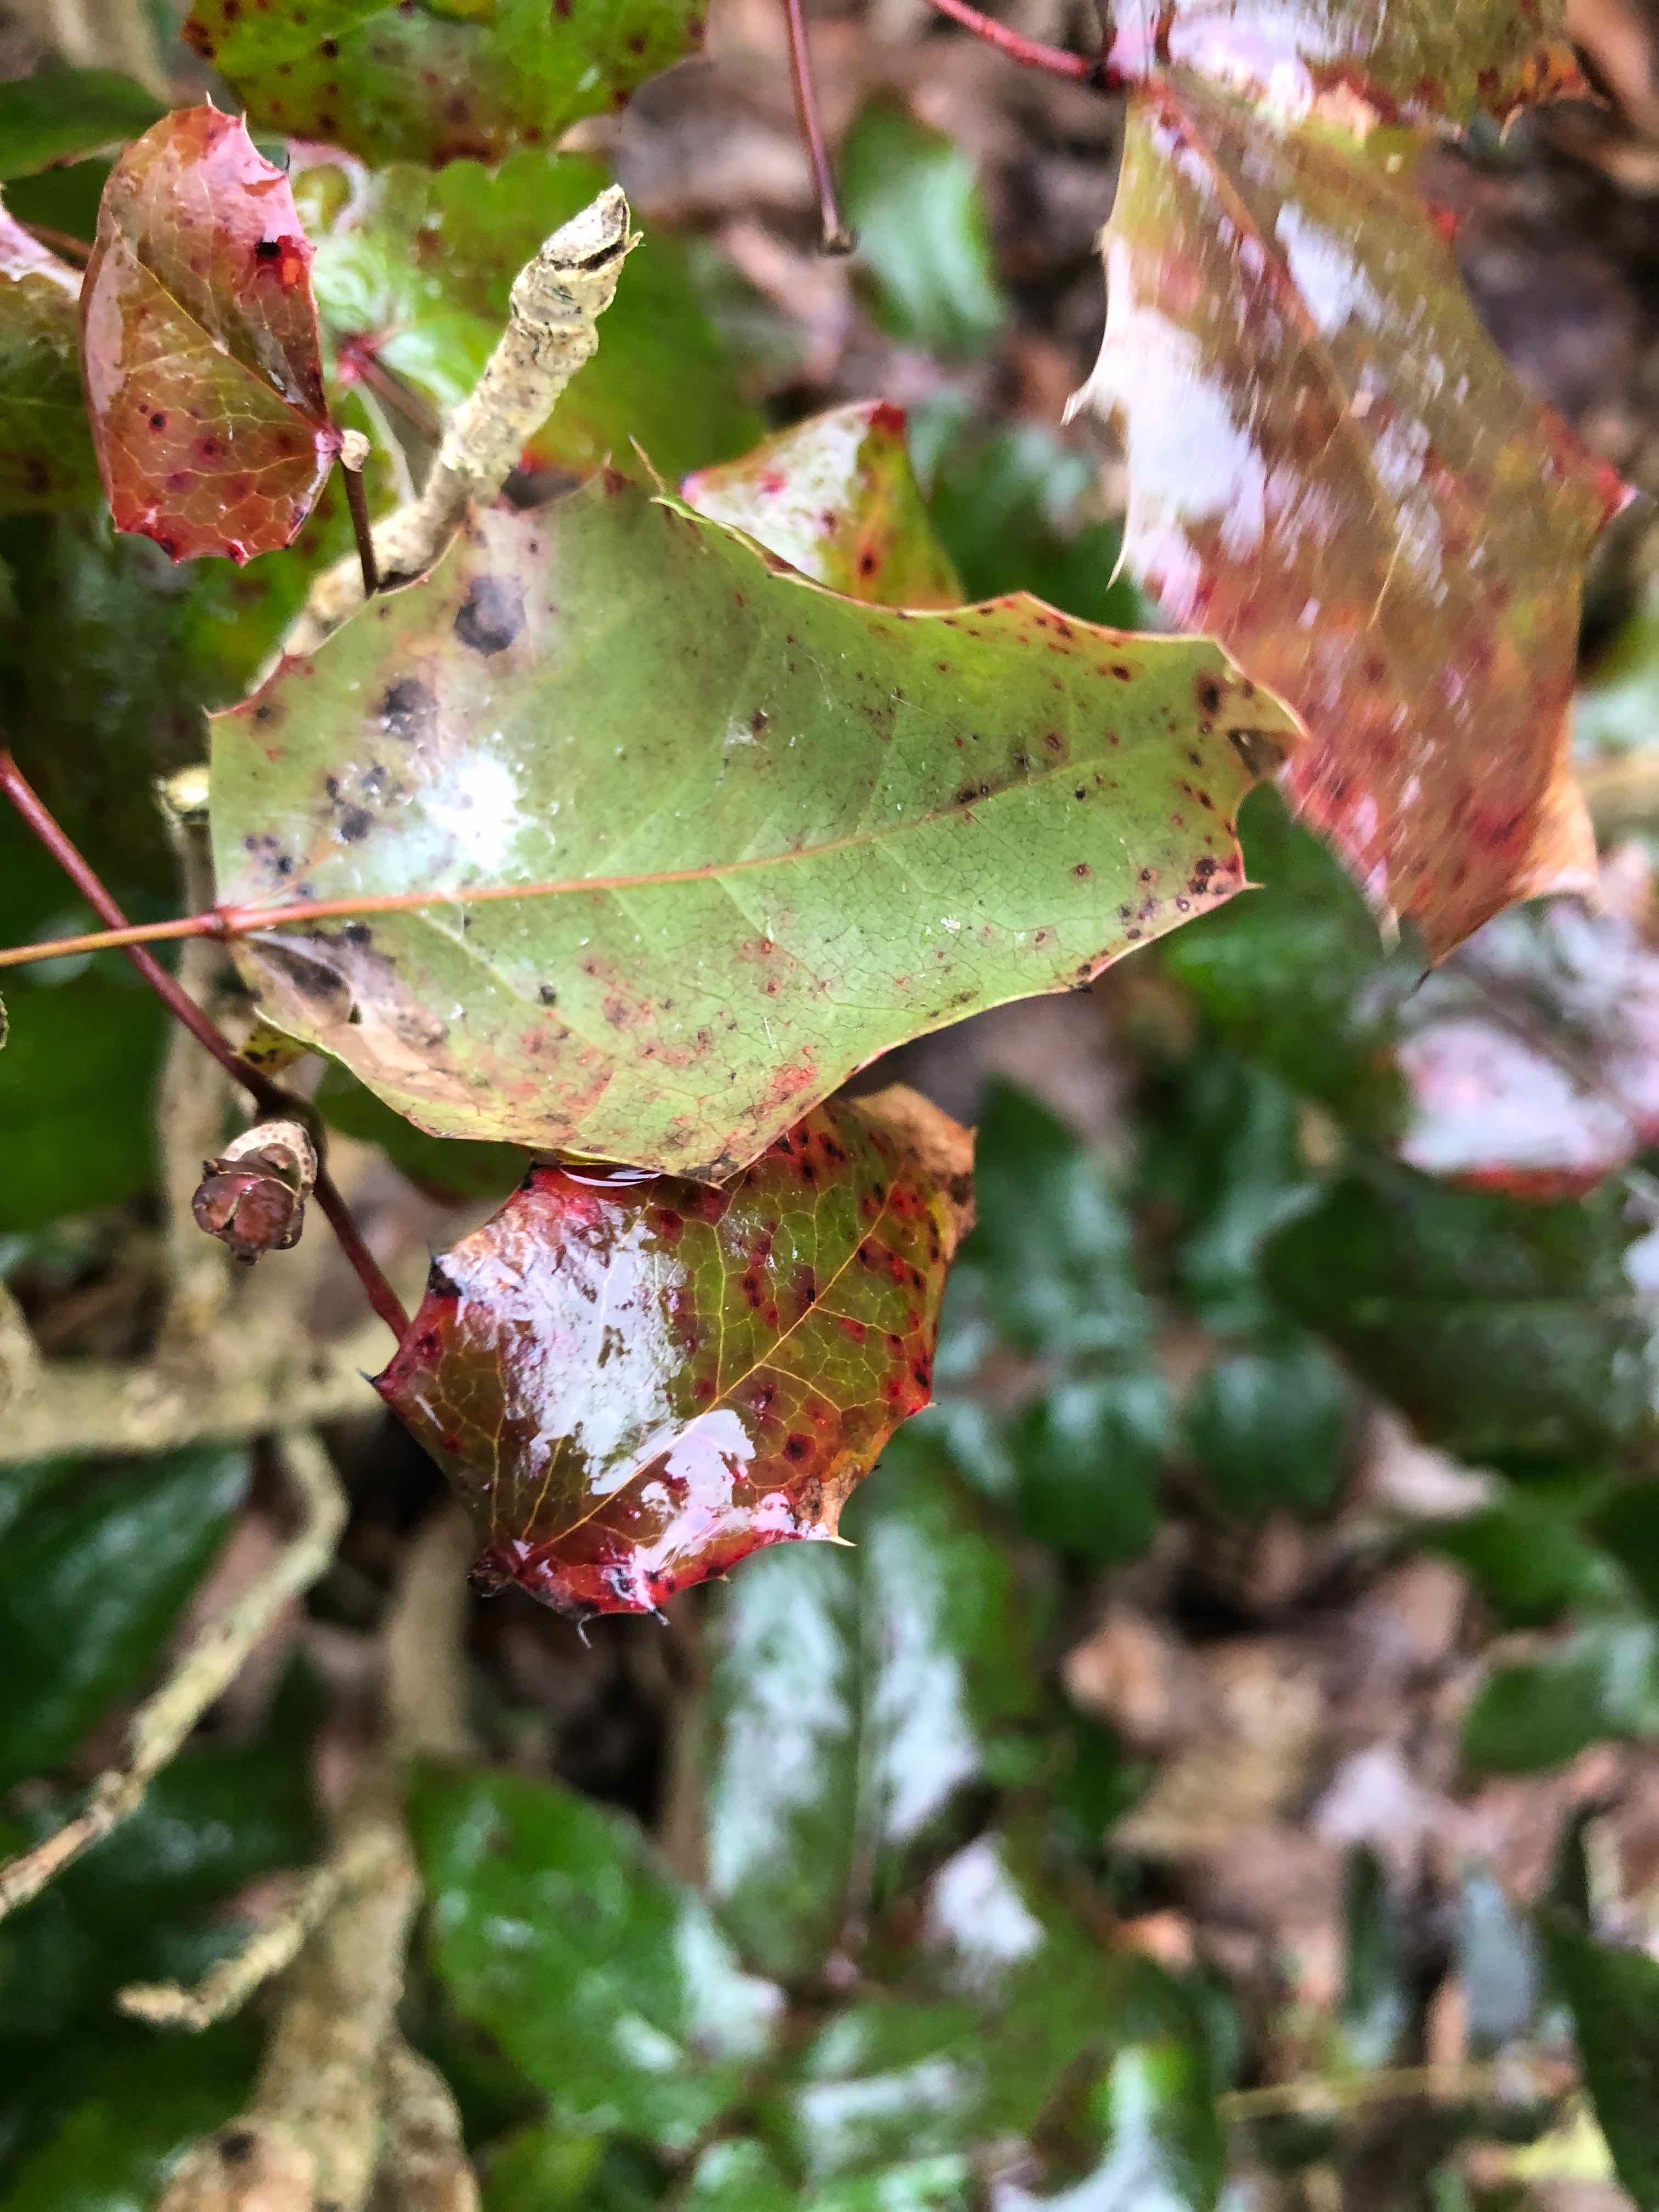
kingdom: Fungi
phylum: Basidiomycota
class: Pucciniomycetes
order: Pucciniales
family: Pucciniaceae
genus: Cumminsiella
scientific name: Cumminsiella mirabilissima
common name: mahonierust
